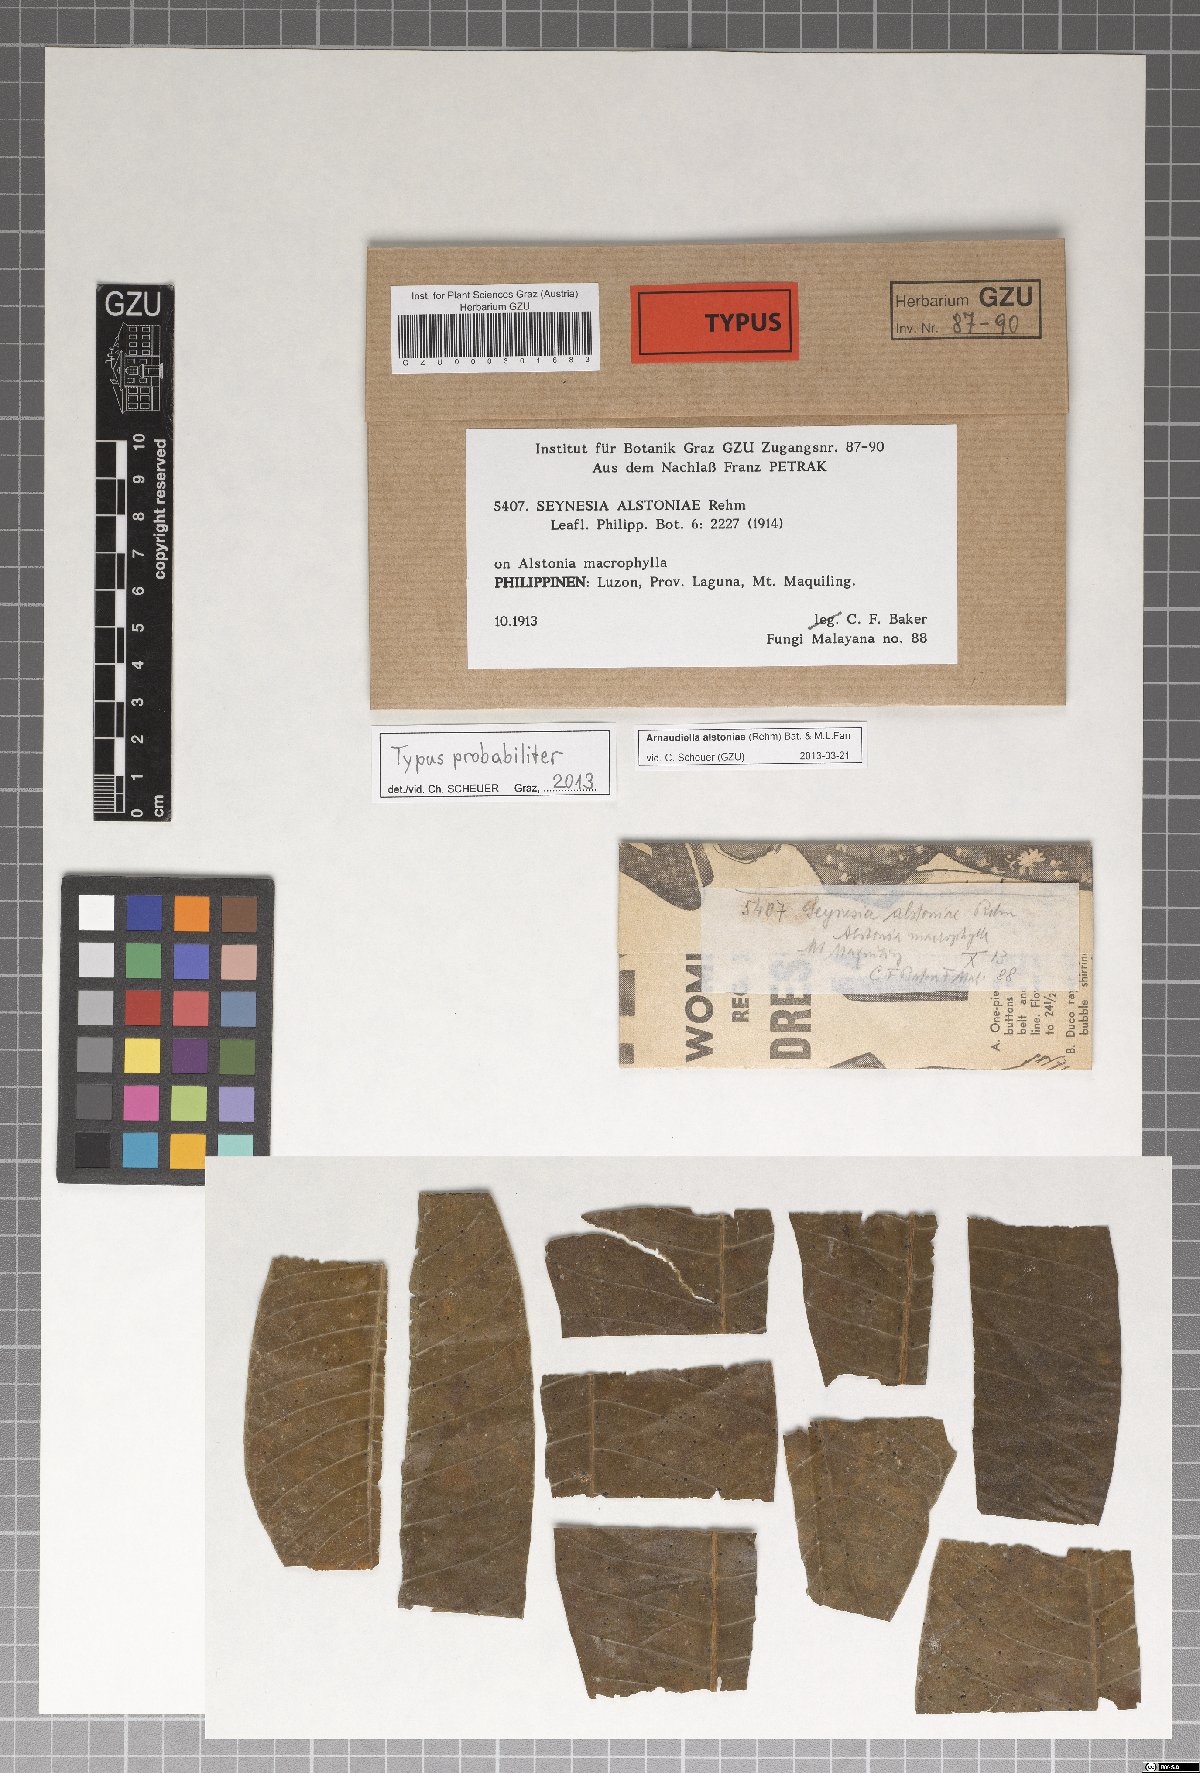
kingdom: Fungi
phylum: Ascomycota
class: Dothideomycetes
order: Microthyriales
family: Microthyriaceae
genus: Arnaudiella
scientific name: Arnaudiella alstoniae
